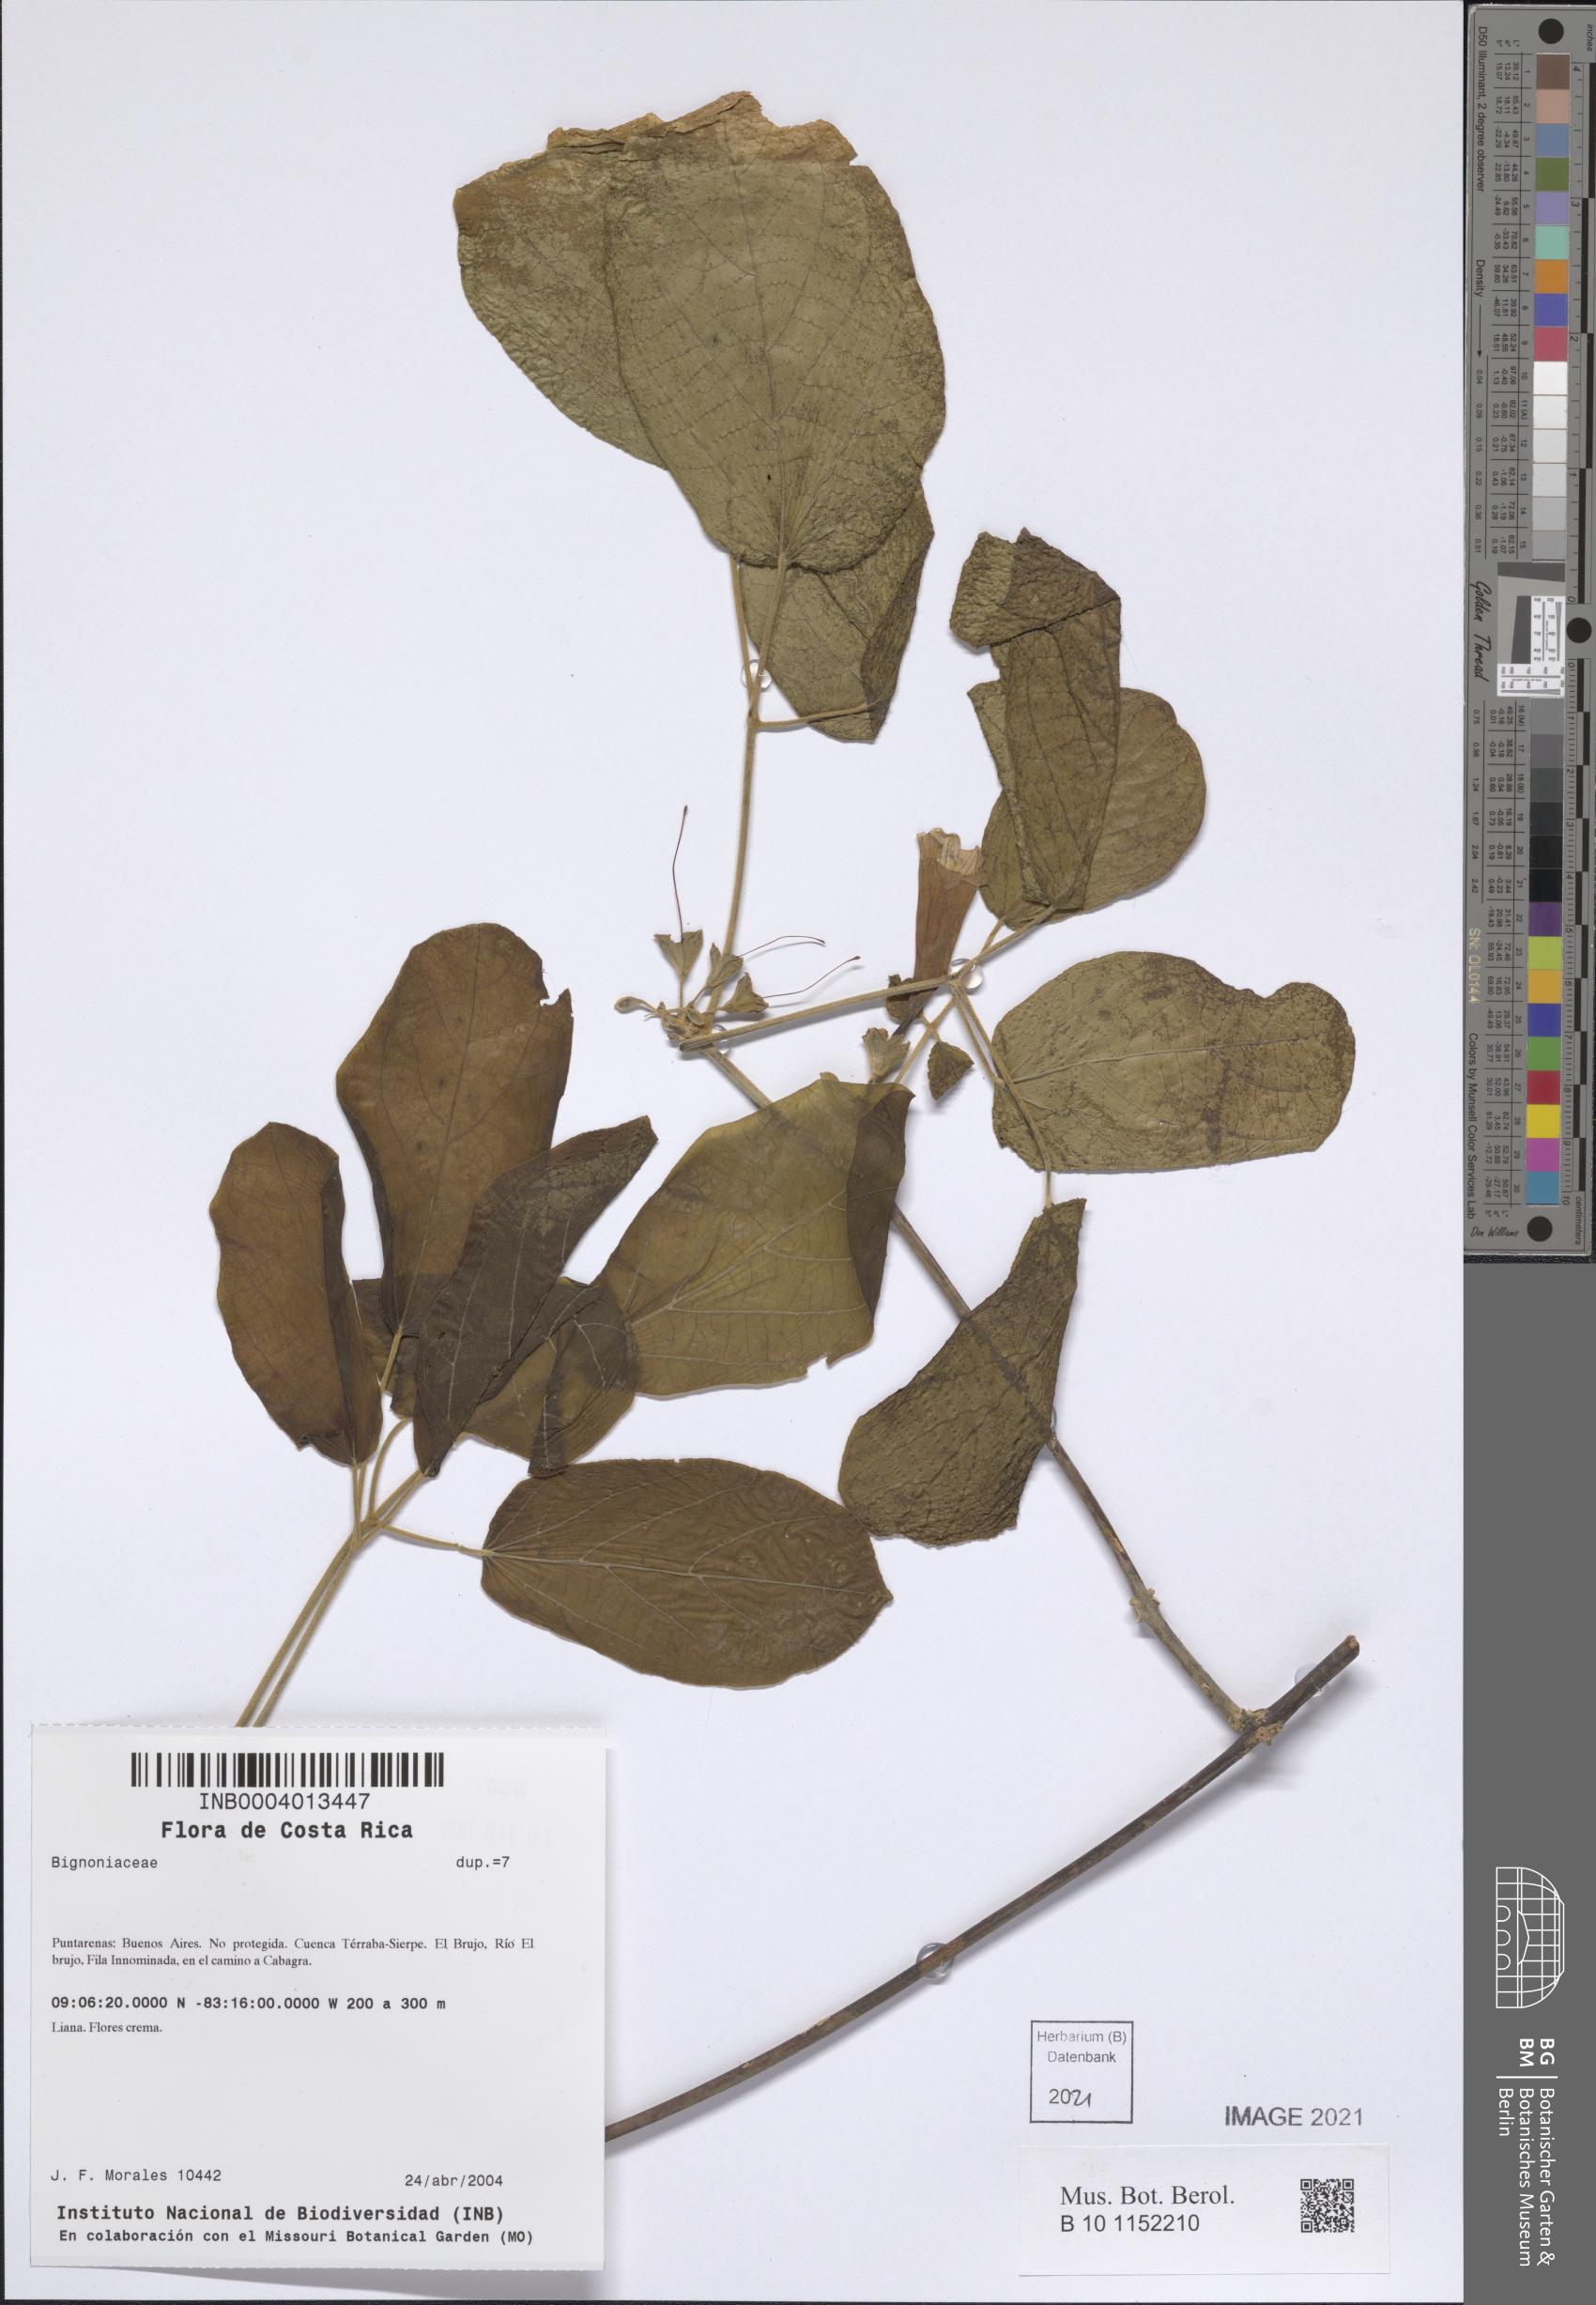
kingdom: Plantae
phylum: Tracheophyta
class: Magnoliopsida
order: Lamiales
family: Bignoniaceae
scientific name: Bignoniaceae
